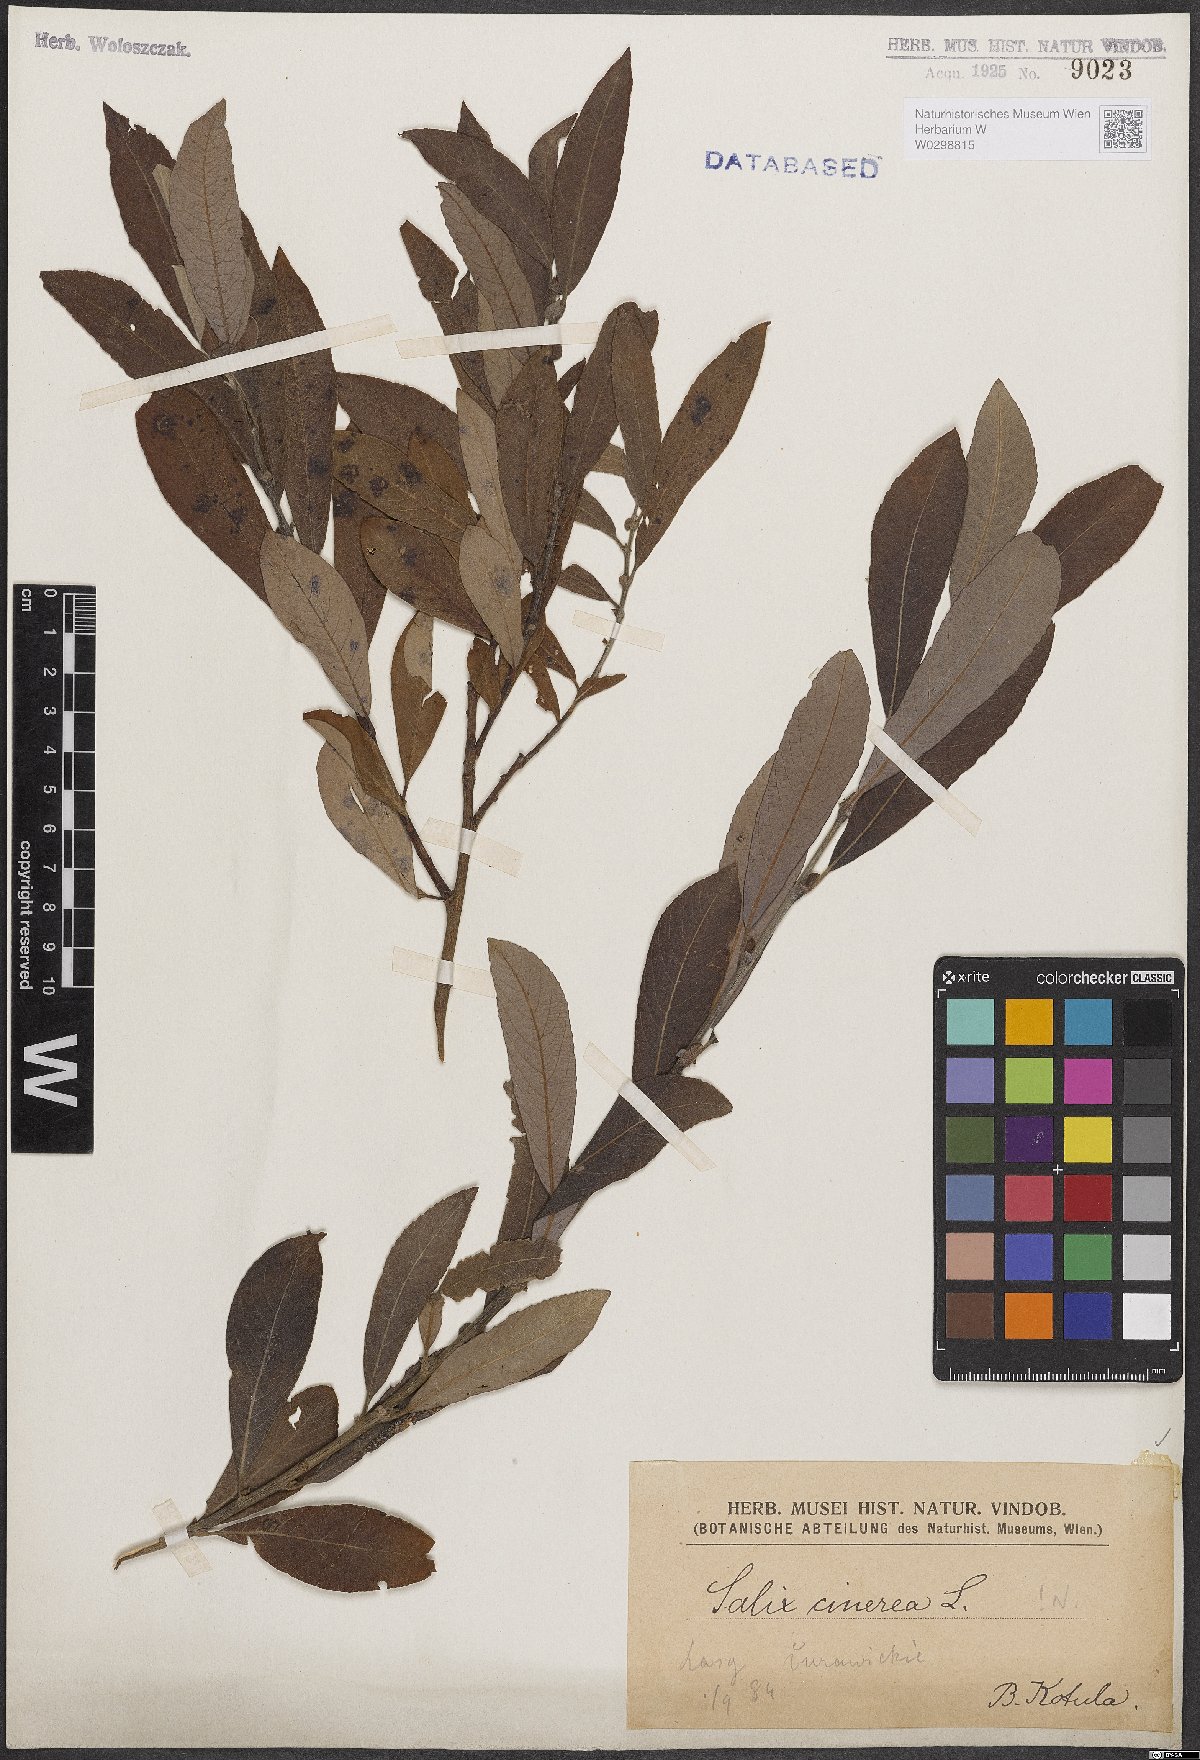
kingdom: Plantae
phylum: Tracheophyta
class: Magnoliopsida
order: Malpighiales
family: Salicaceae
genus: Salix
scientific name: Salix cinerea
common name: Common sallow
